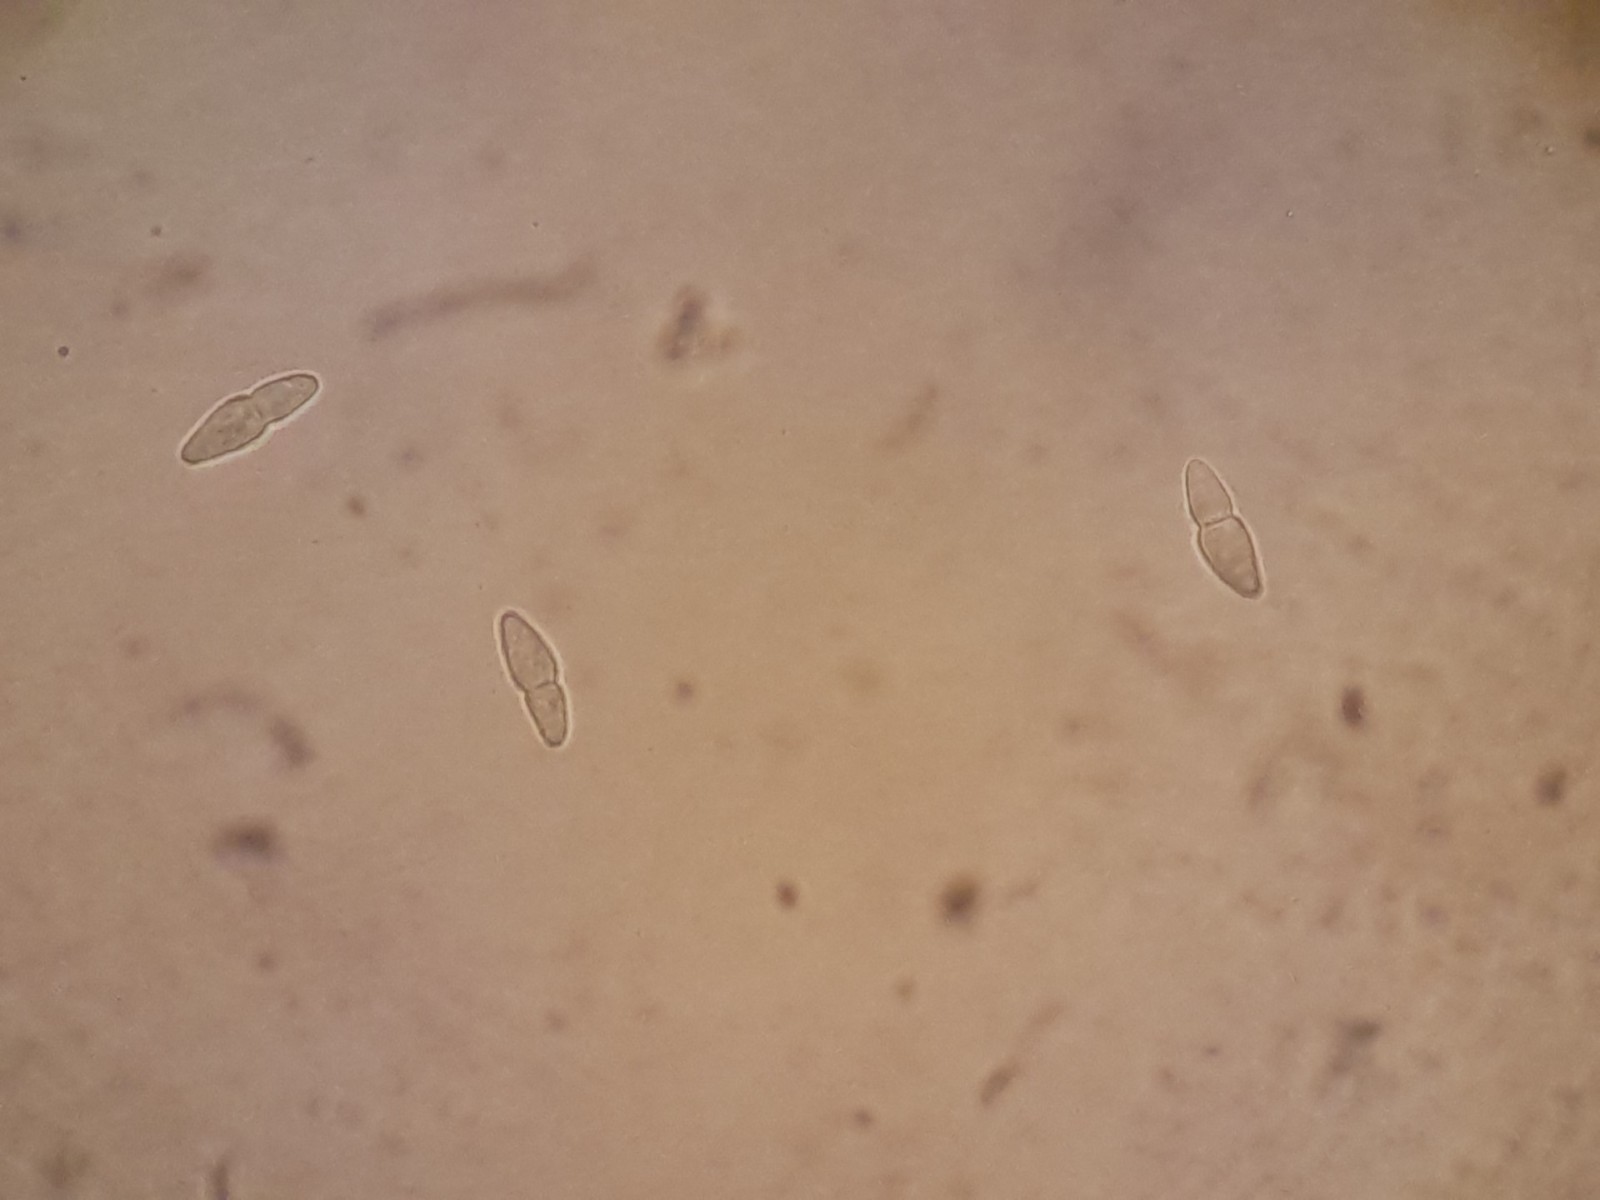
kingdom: Fungi
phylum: Ascomycota
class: Dothideomycetes
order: Botryosphaeriales
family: Botryosphaeriaceae
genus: Dothiora
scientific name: Dothiora ribesia
